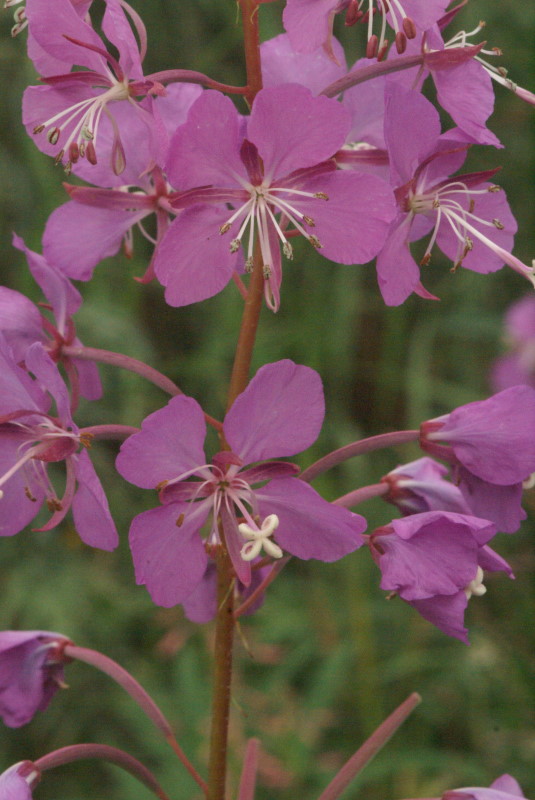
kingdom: Plantae
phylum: Tracheophyta
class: Magnoliopsida
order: Myrtales
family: Onagraceae
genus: Chamaenerion
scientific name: Chamaenerion angustifolium
